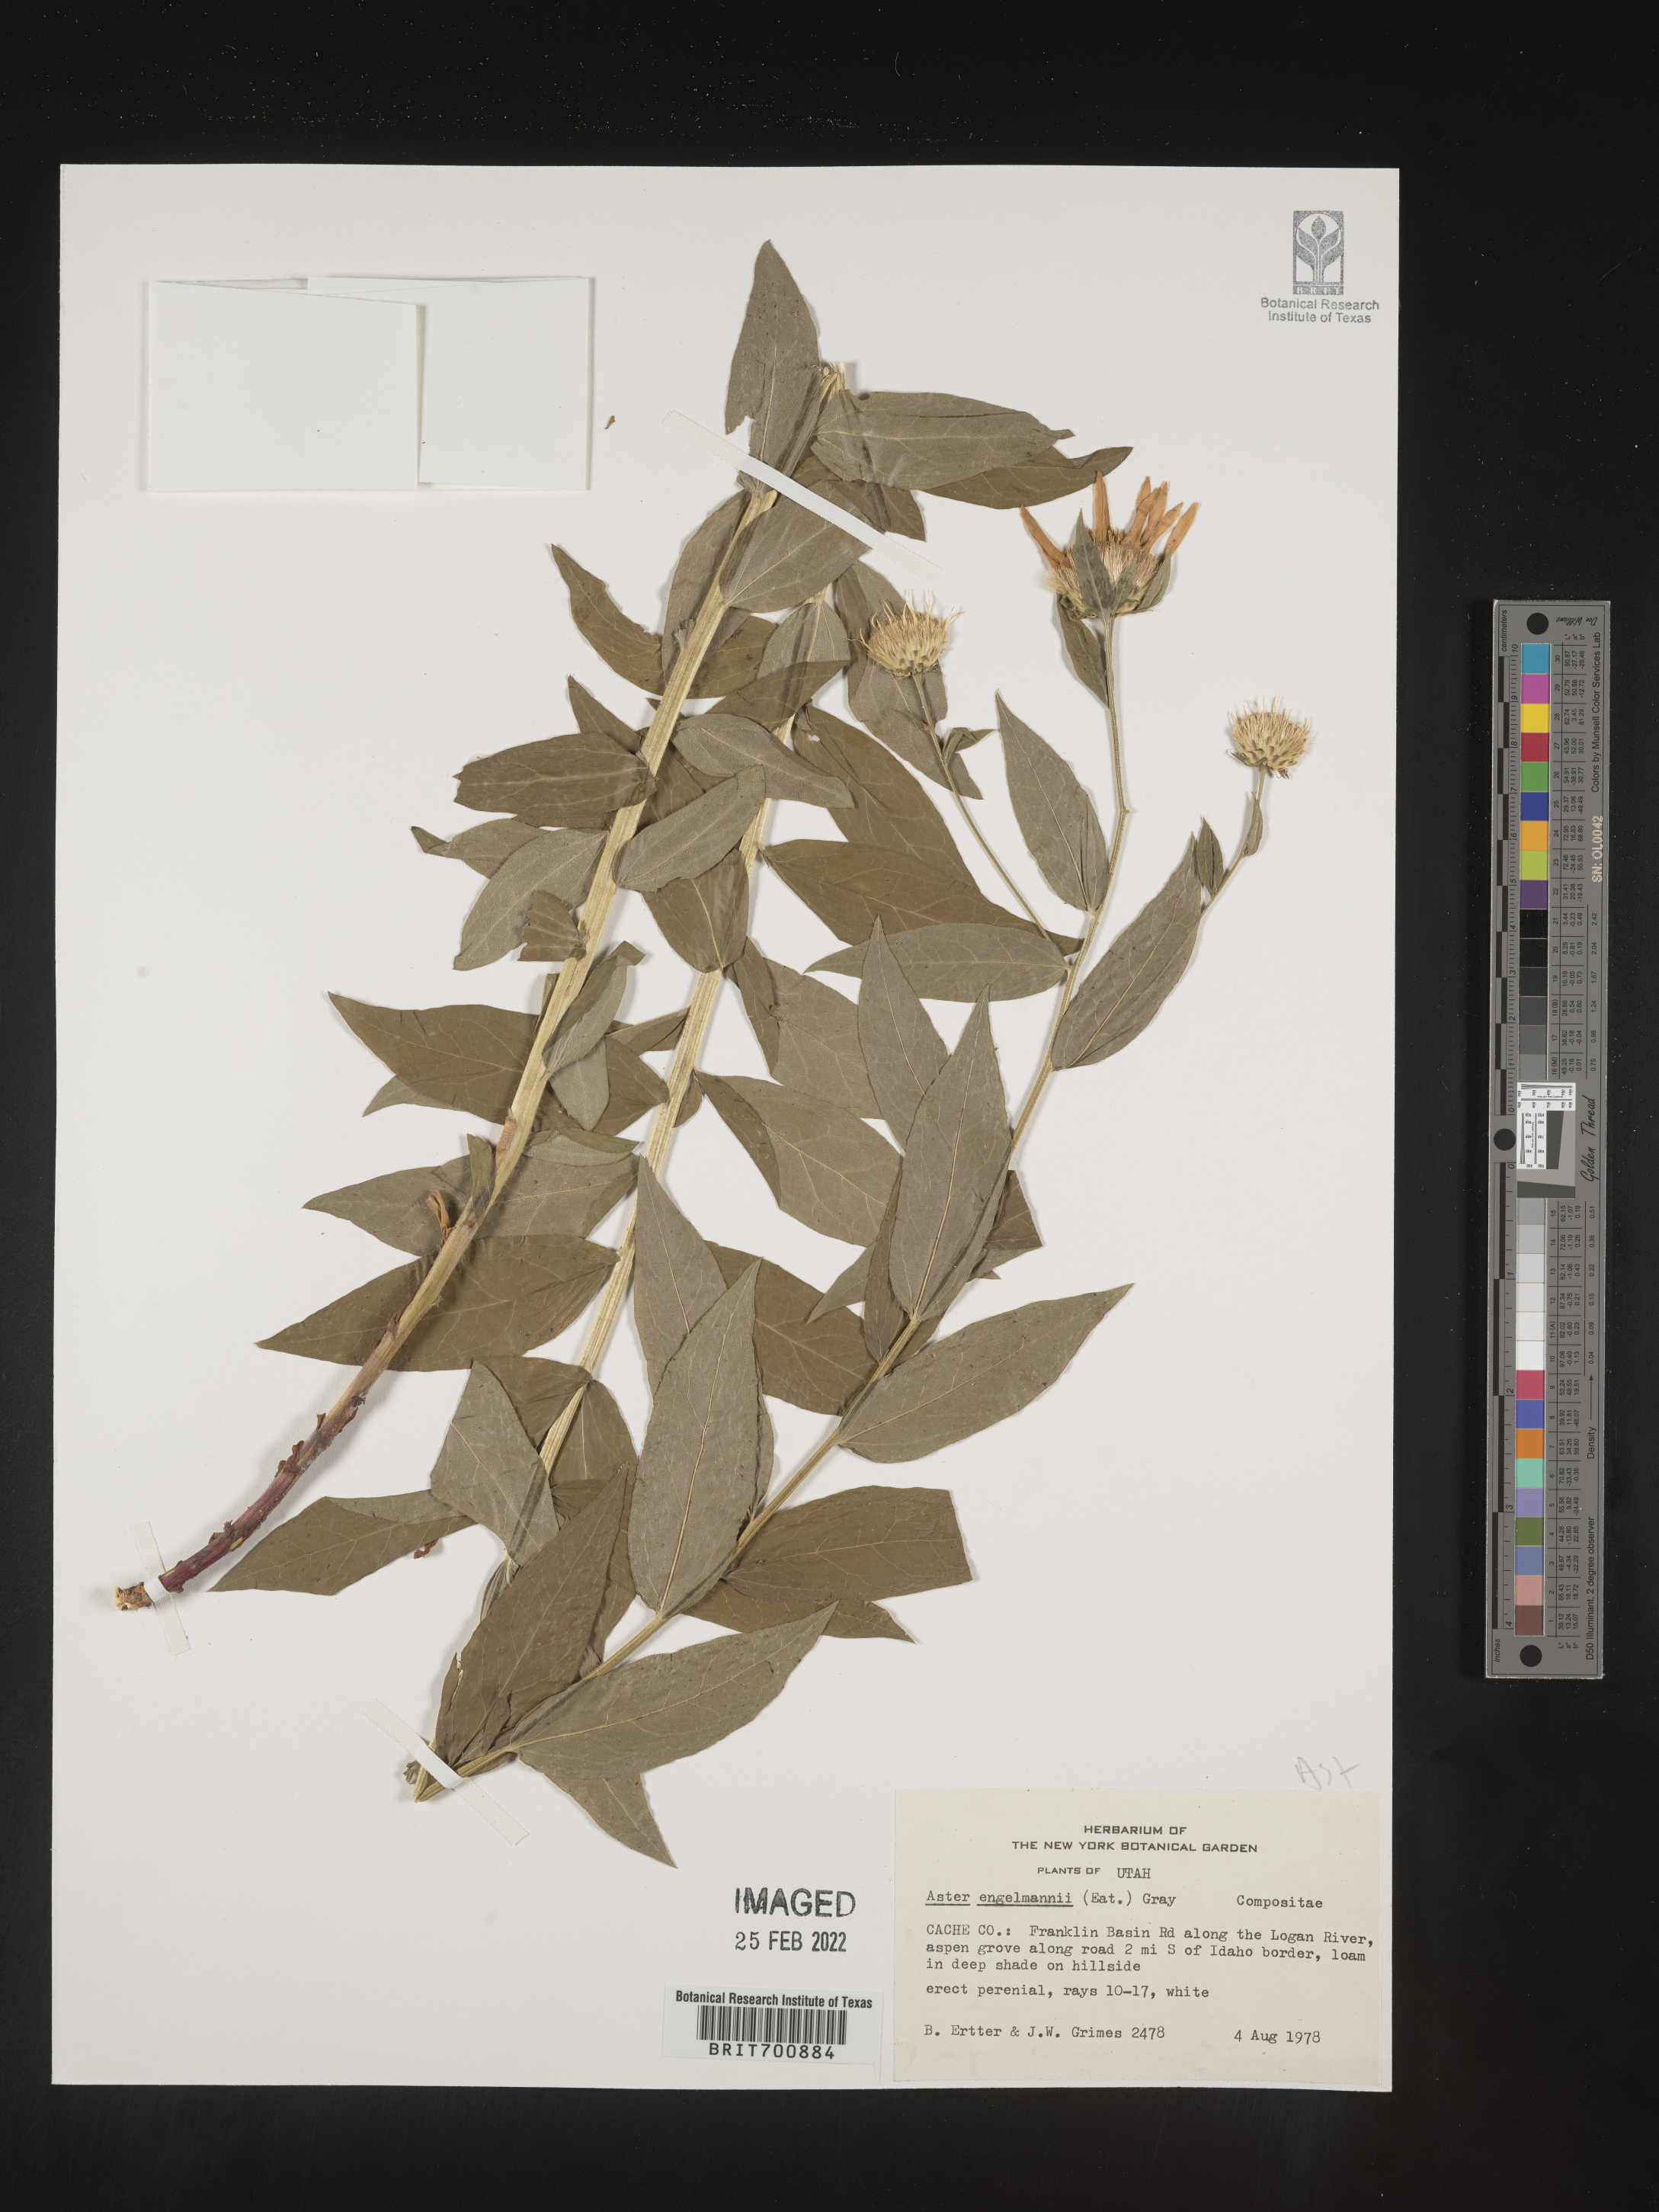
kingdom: Plantae
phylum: Tracheophyta
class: Magnoliopsida
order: Asterales
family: Asteraceae
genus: Eucephalus
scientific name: Eucephalus engelmannii
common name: Engelmann's aster
